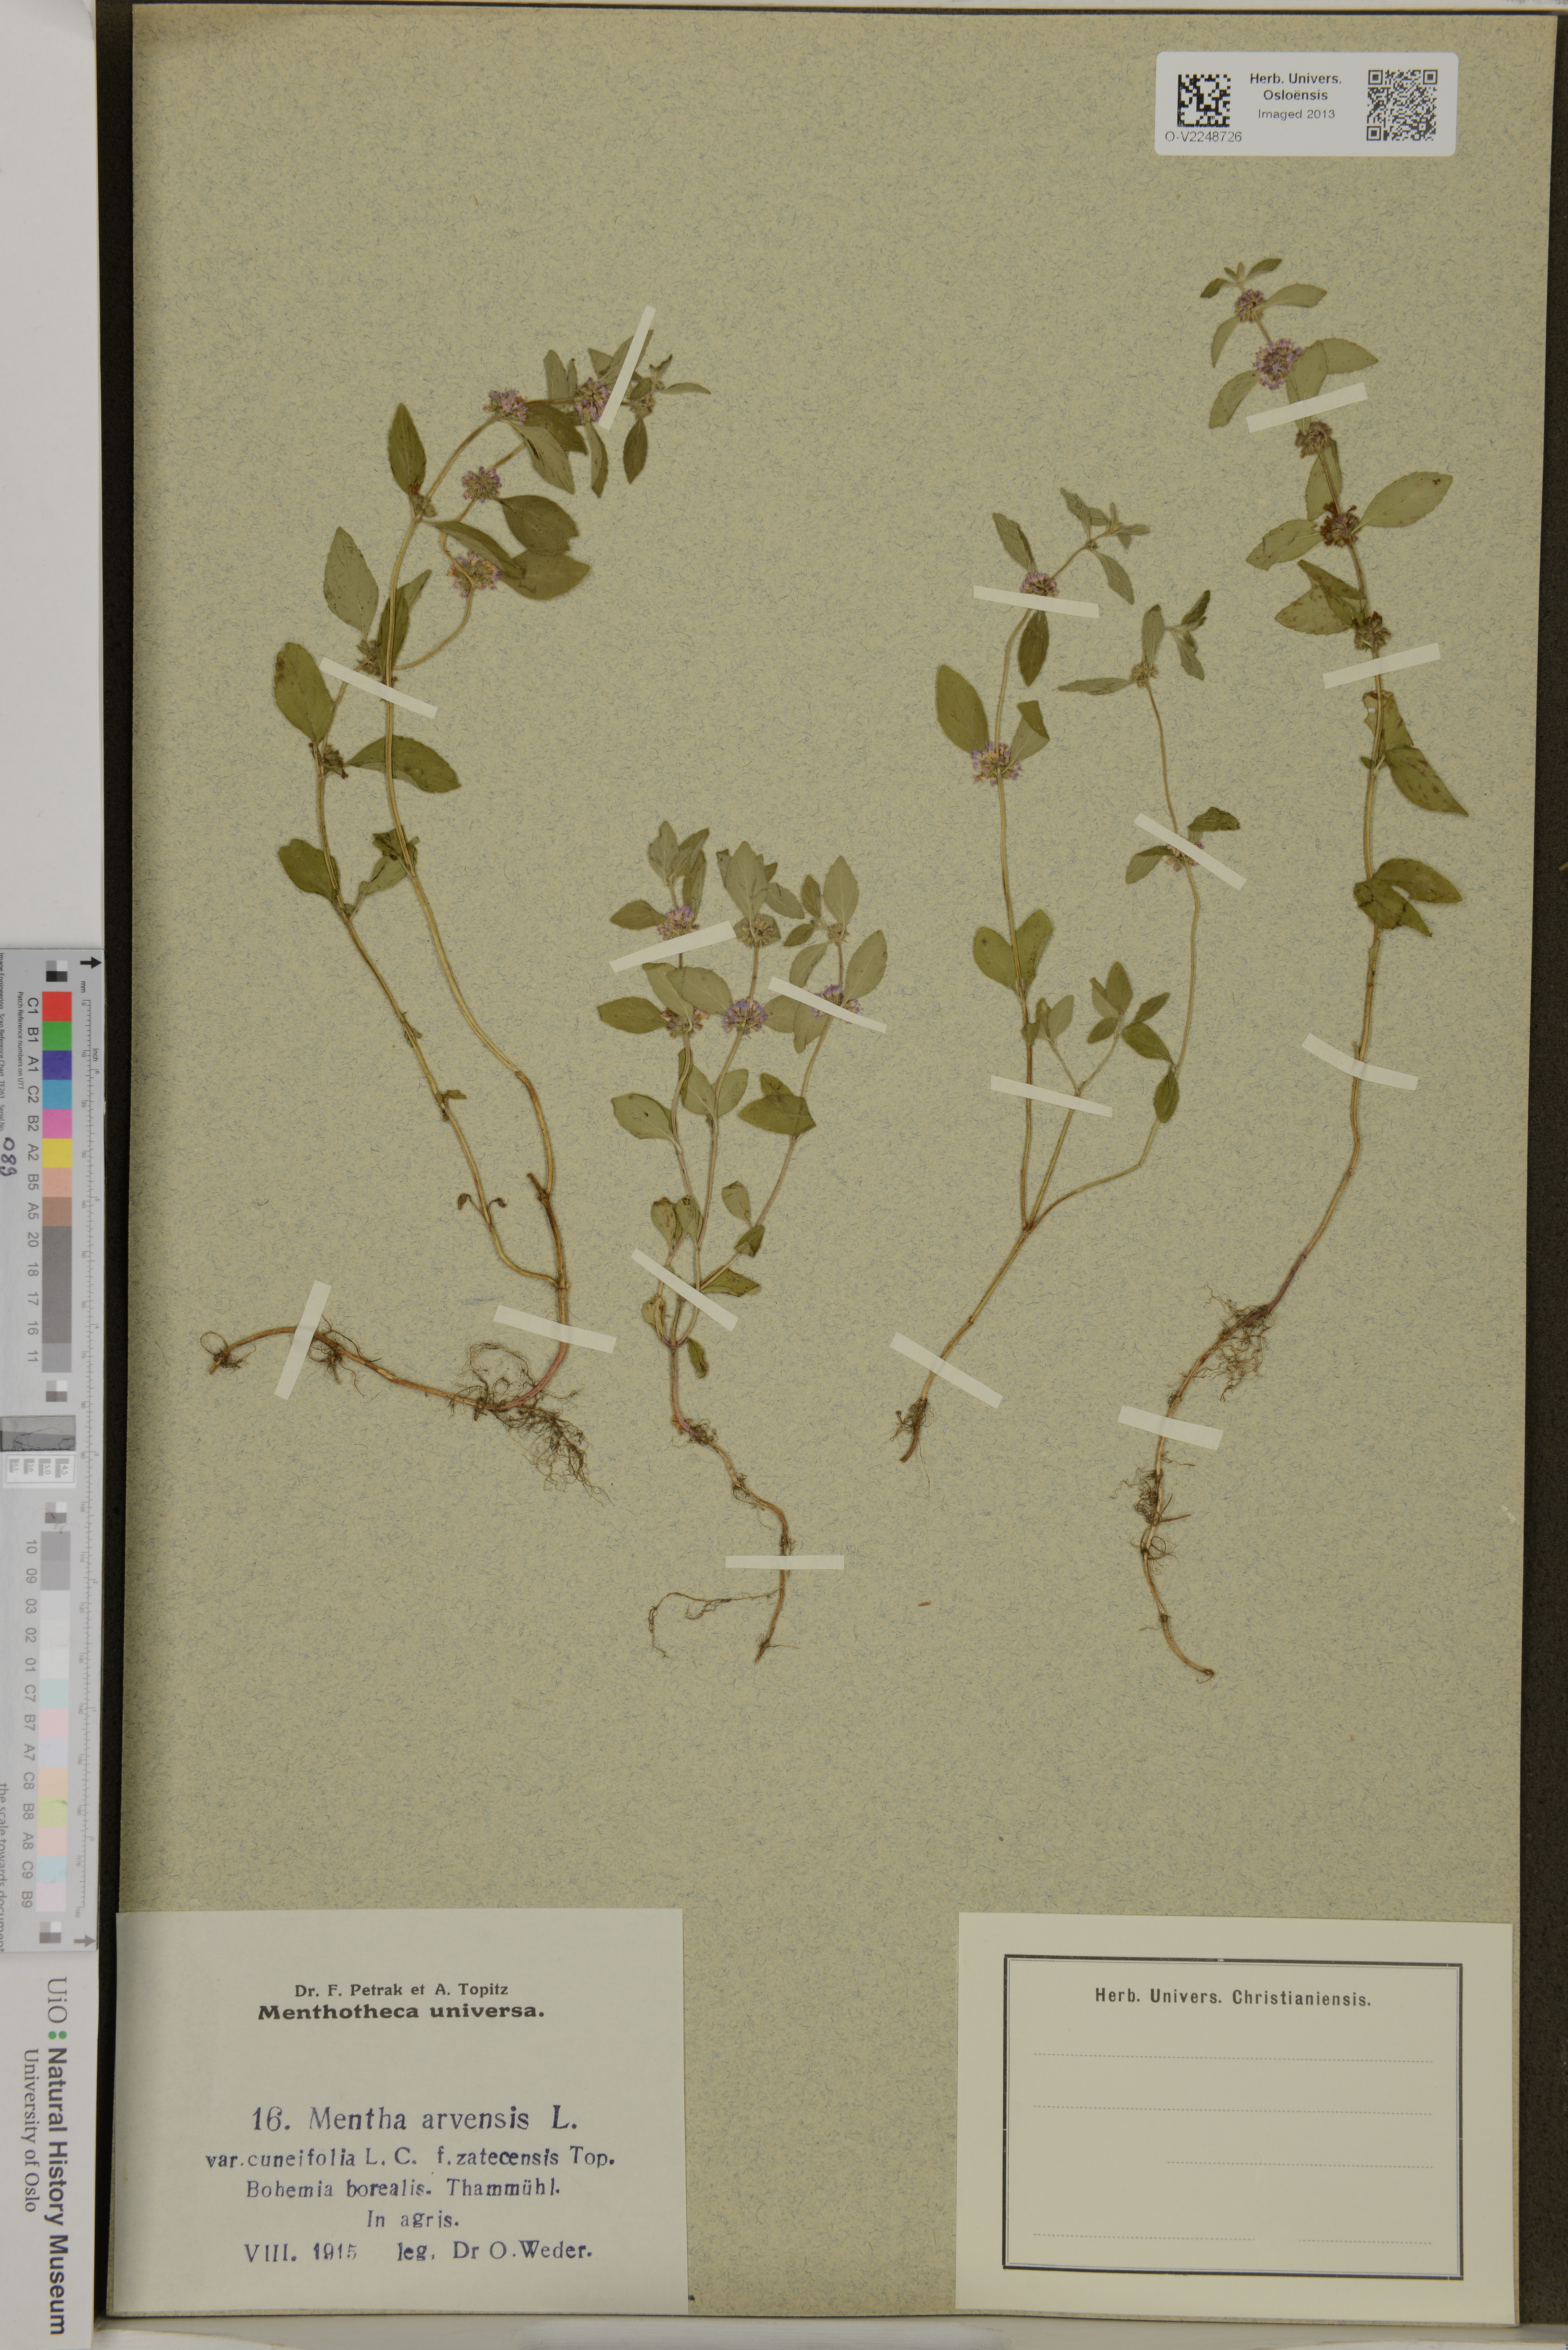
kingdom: Plantae
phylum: Tracheophyta
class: Magnoliopsida
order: Lamiales
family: Lamiaceae
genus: Mentha
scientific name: Mentha arvensis
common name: Corn mint
